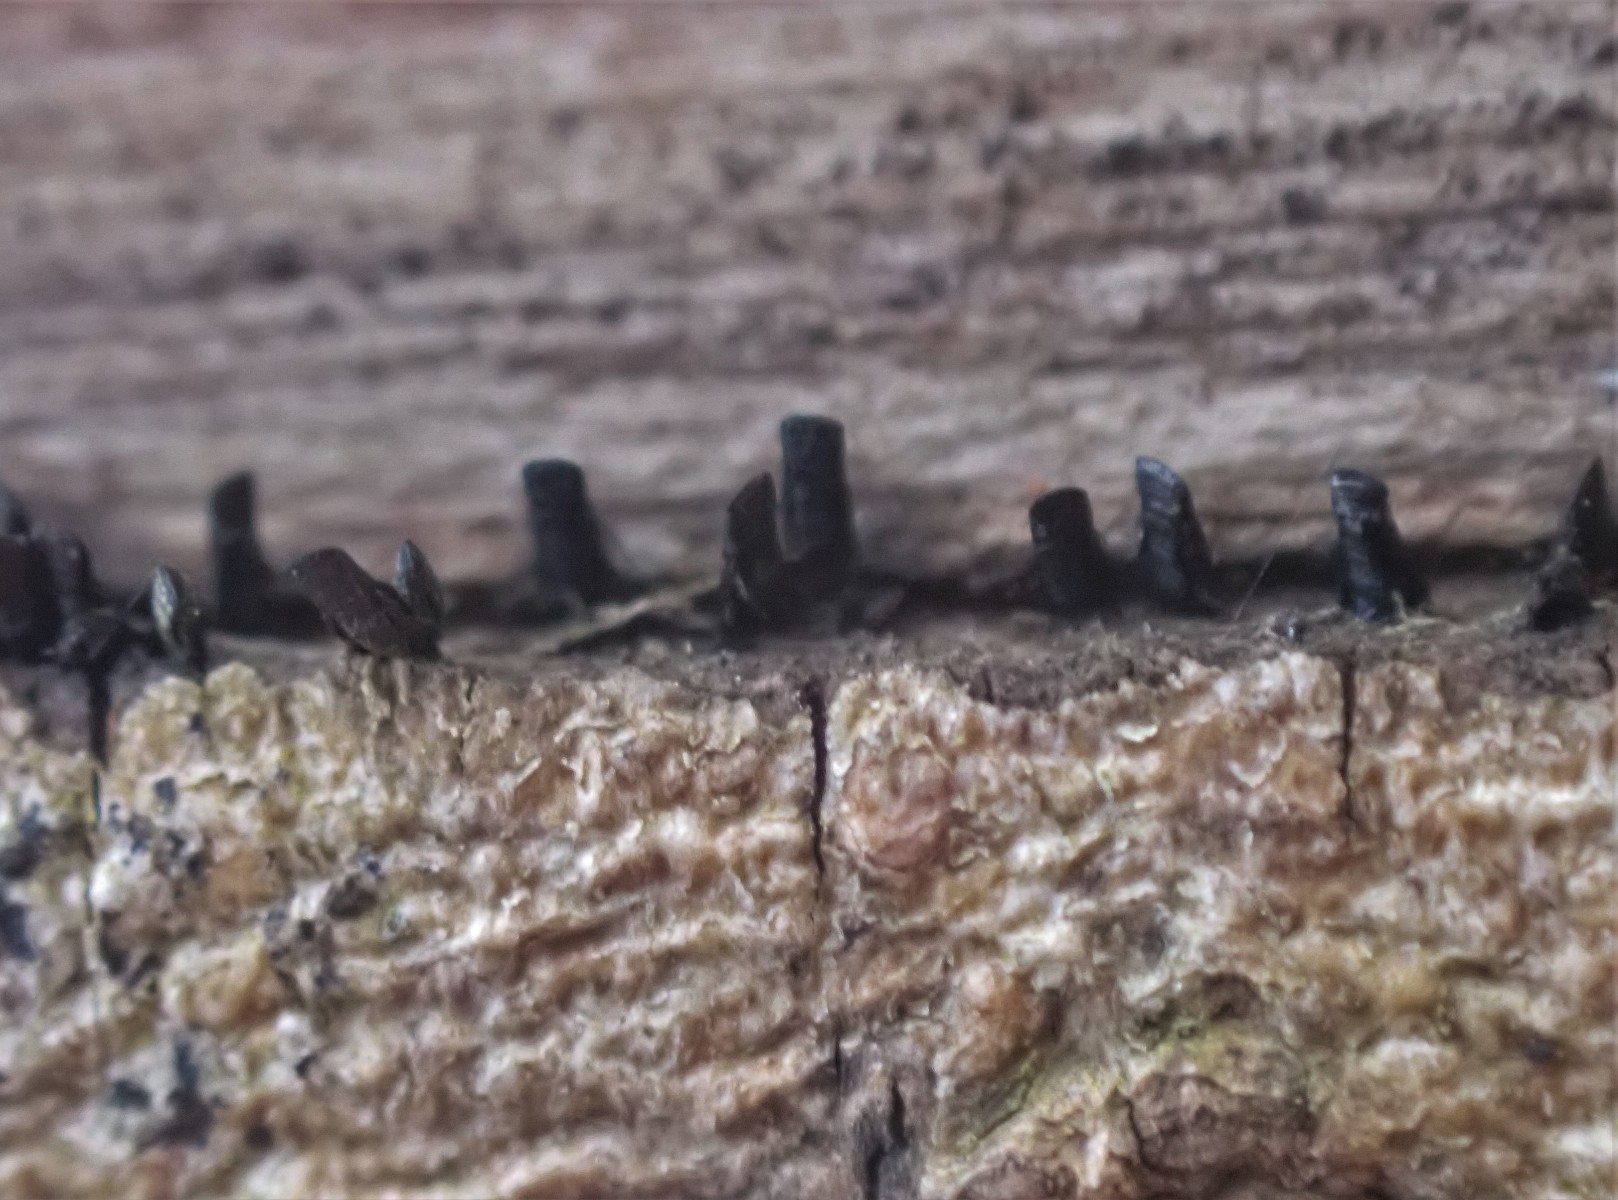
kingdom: Fungi
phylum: Ascomycota
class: Eurotiomycetes
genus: Glyphium
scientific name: Glyphium elatum
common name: kuløkse
